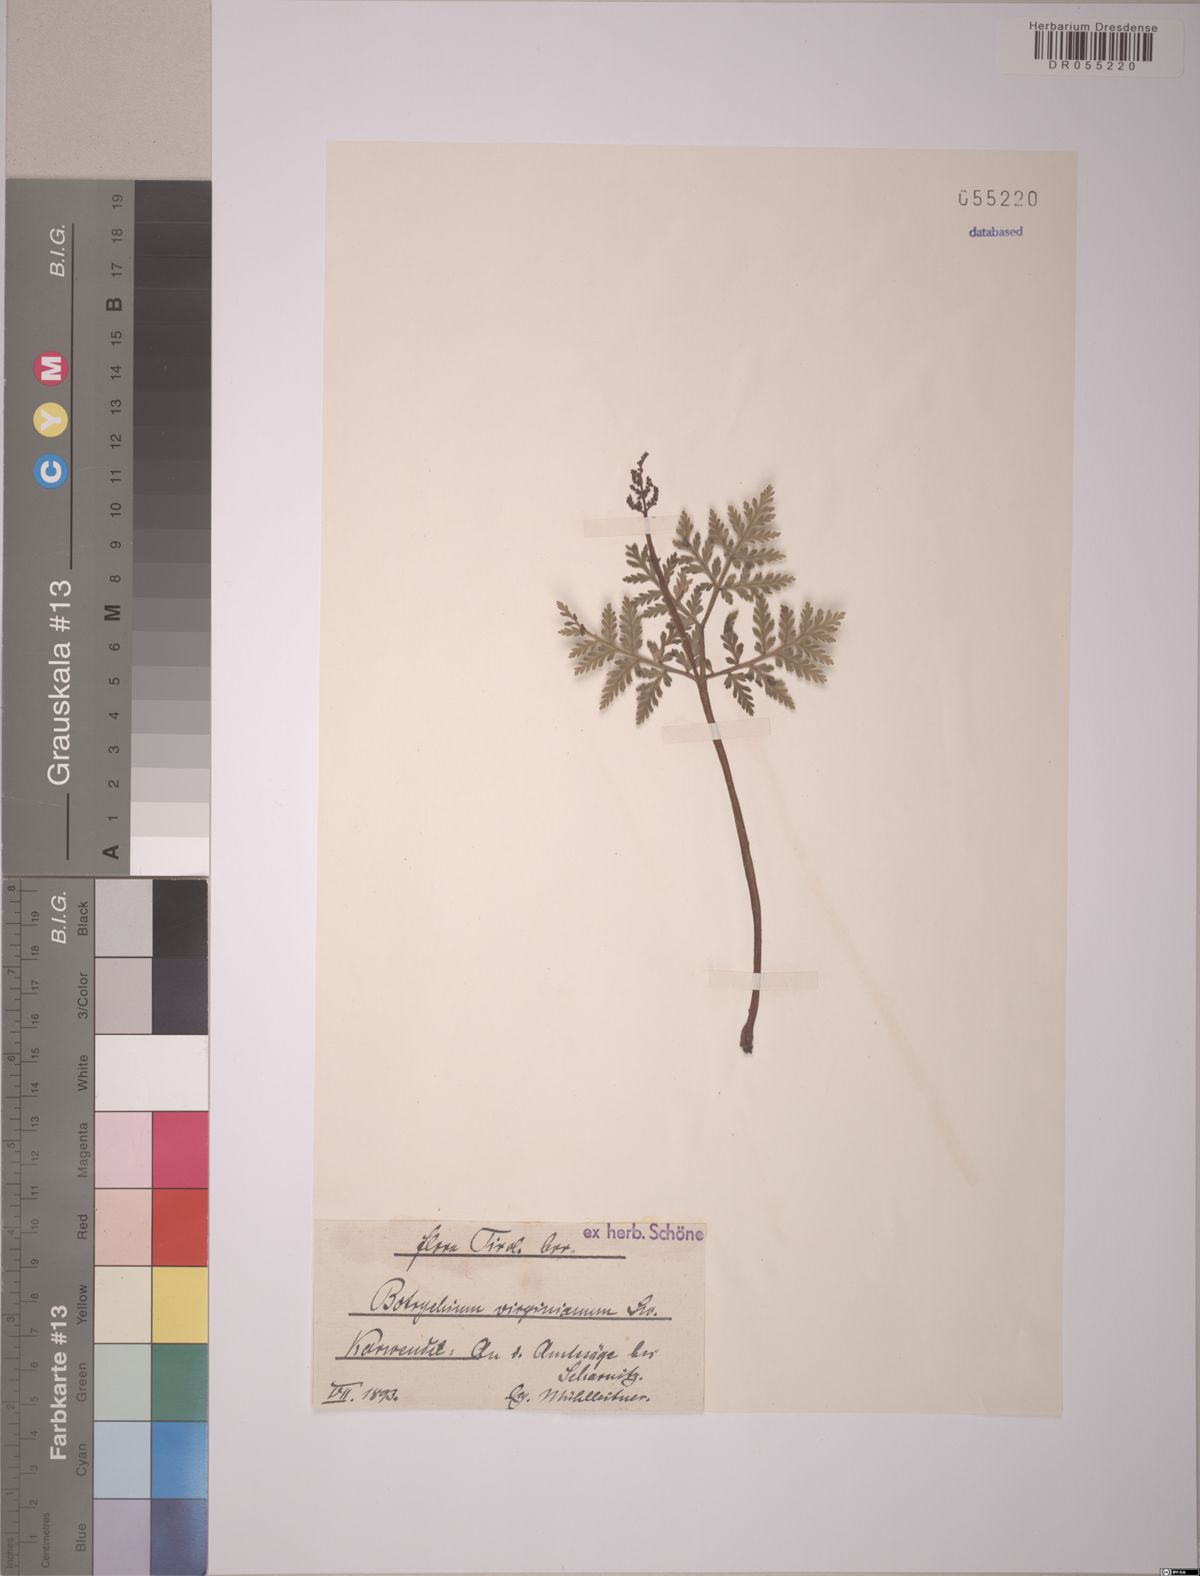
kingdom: Plantae
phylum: Tracheophyta
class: Polypodiopsida
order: Ophioglossales
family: Ophioglossaceae
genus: Botrypus
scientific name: Botrypus virginianus
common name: Common grapefern
